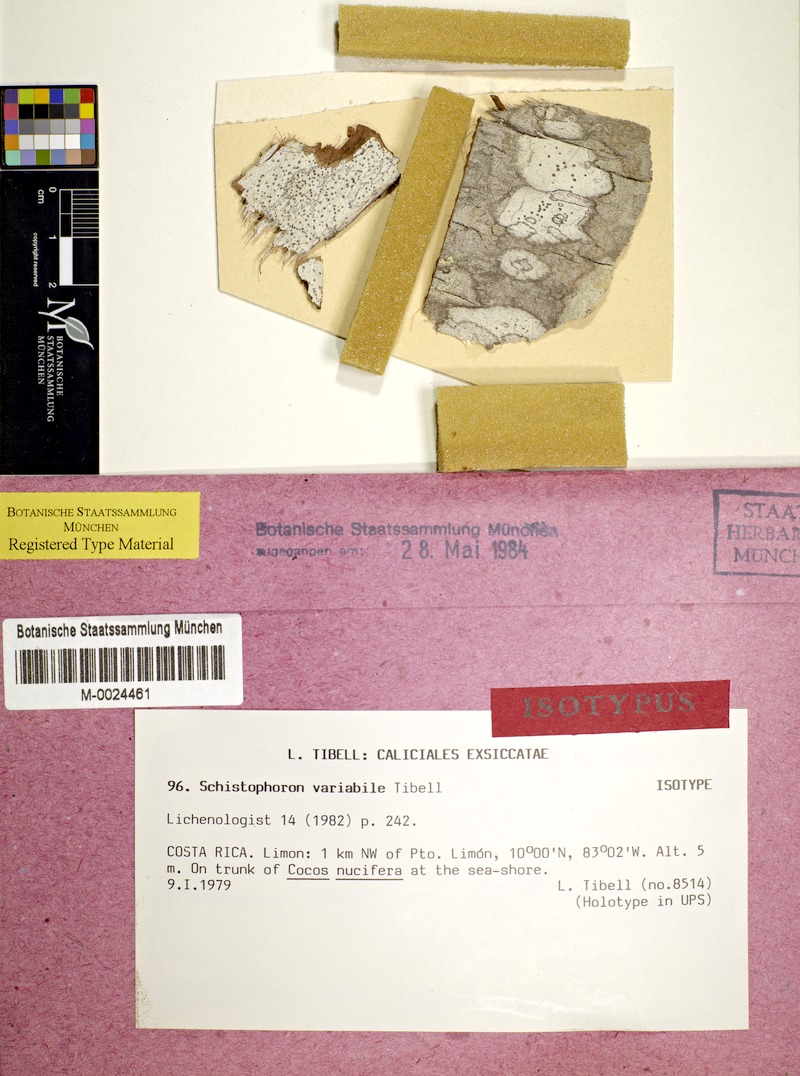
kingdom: Fungi
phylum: Ascomycota
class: Lecanoromycetes
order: Ostropales
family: Graphidaceae
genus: Schistophoron
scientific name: Schistophoron variabile
